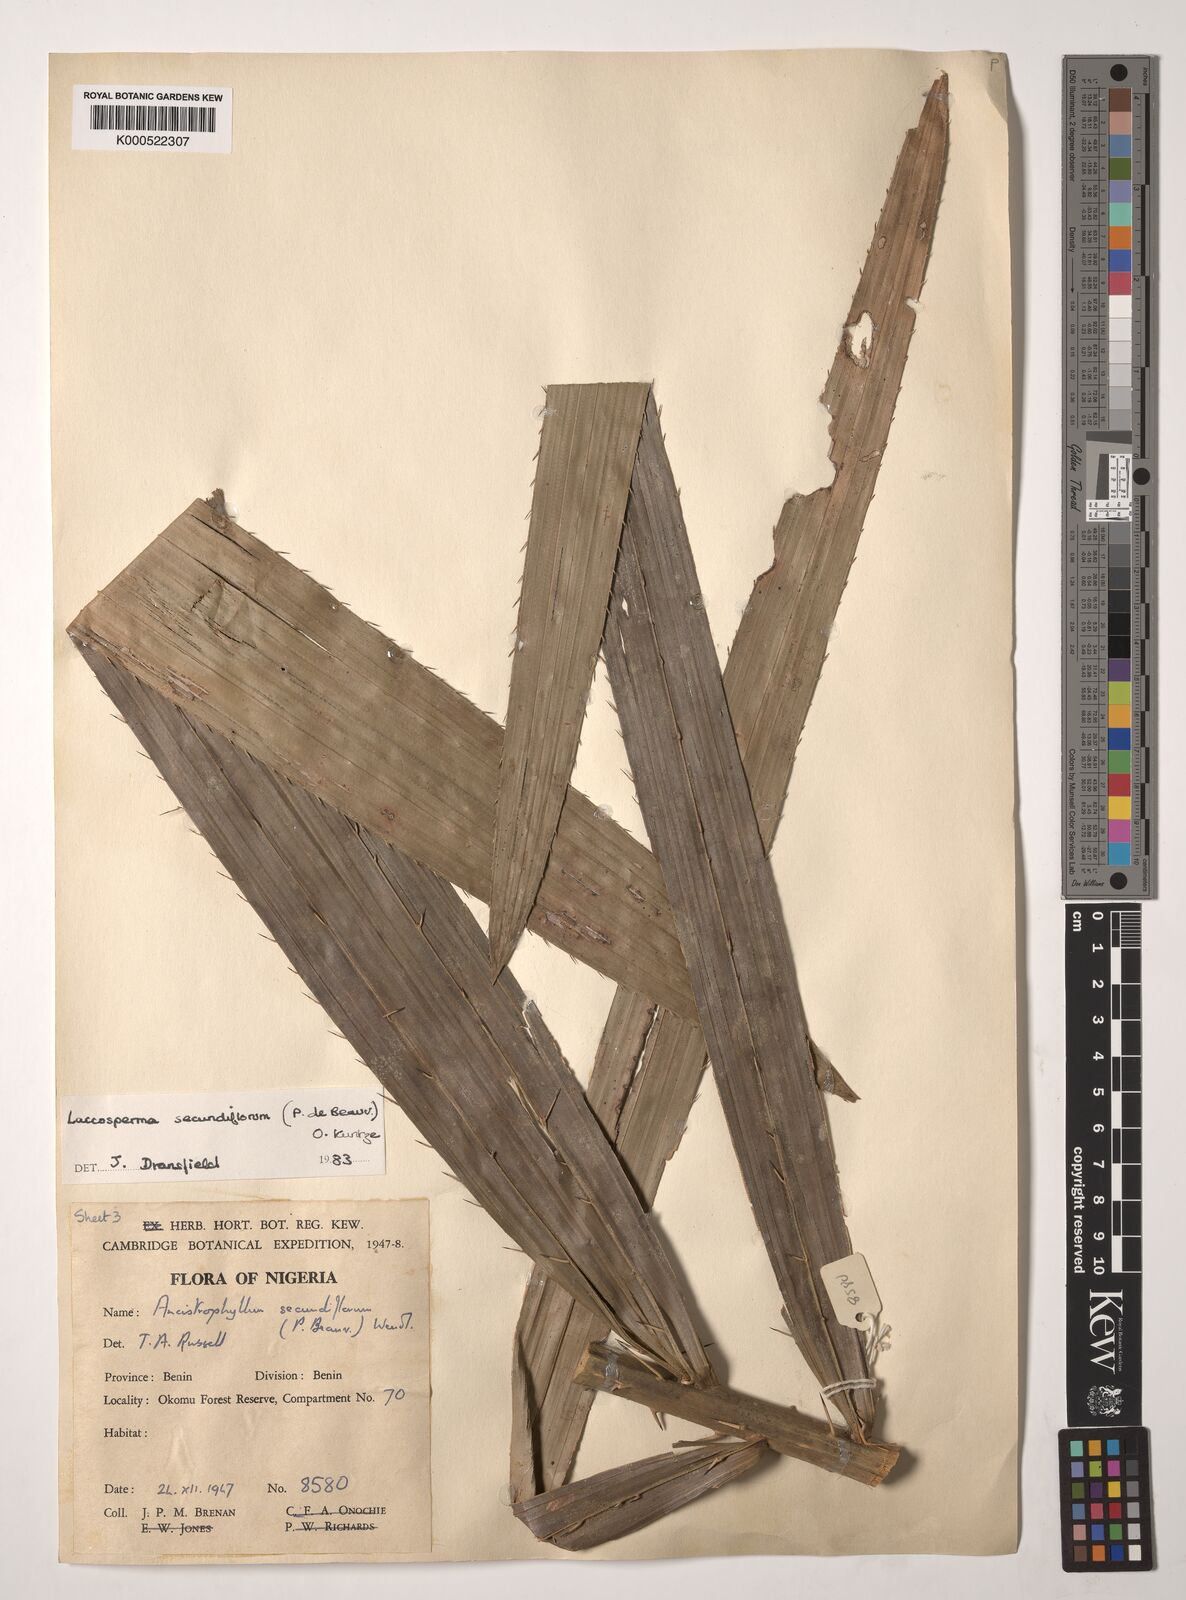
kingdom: Plantae
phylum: Tracheophyta
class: Liliopsida
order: Arecales
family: Arecaceae
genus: Laccosperma
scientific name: Laccosperma secundiflorum
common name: Rattan
